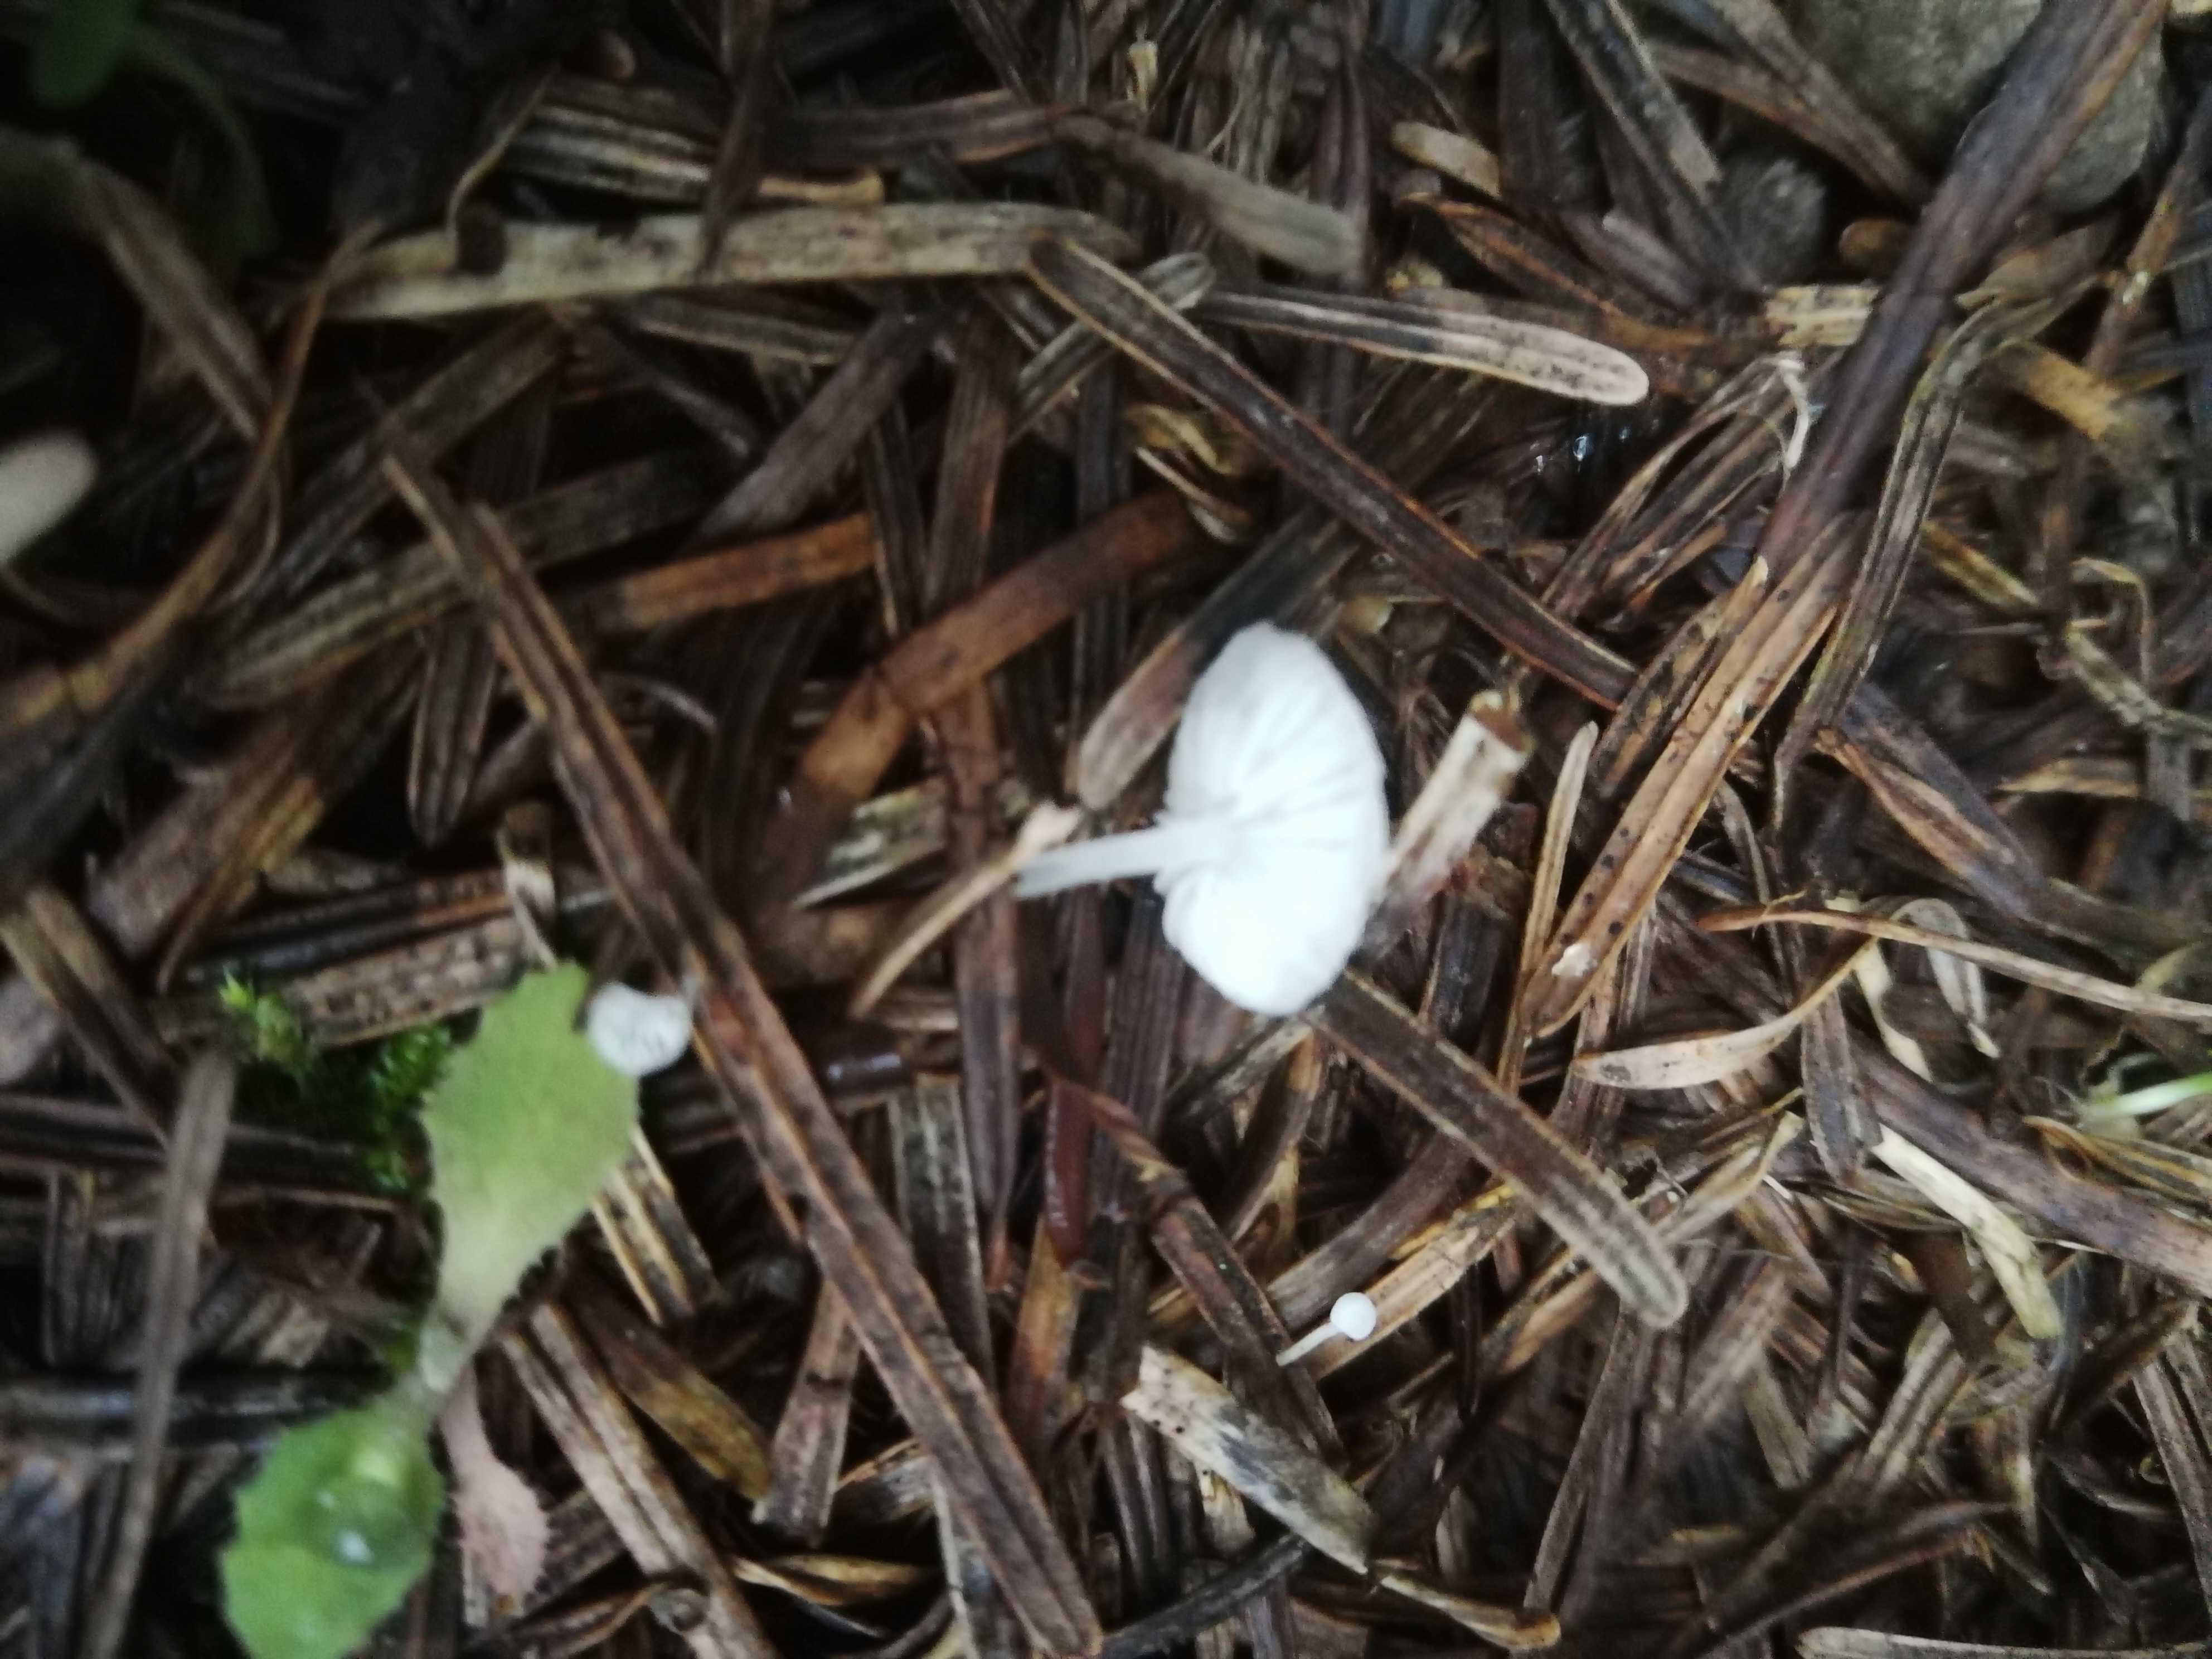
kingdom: Fungi
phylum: Basidiomycota
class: Agaricomycetes
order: Agaricales
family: Mycenaceae
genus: Hemimycena
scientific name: Hemimycena lactea
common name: mælkehvid huesvamp
